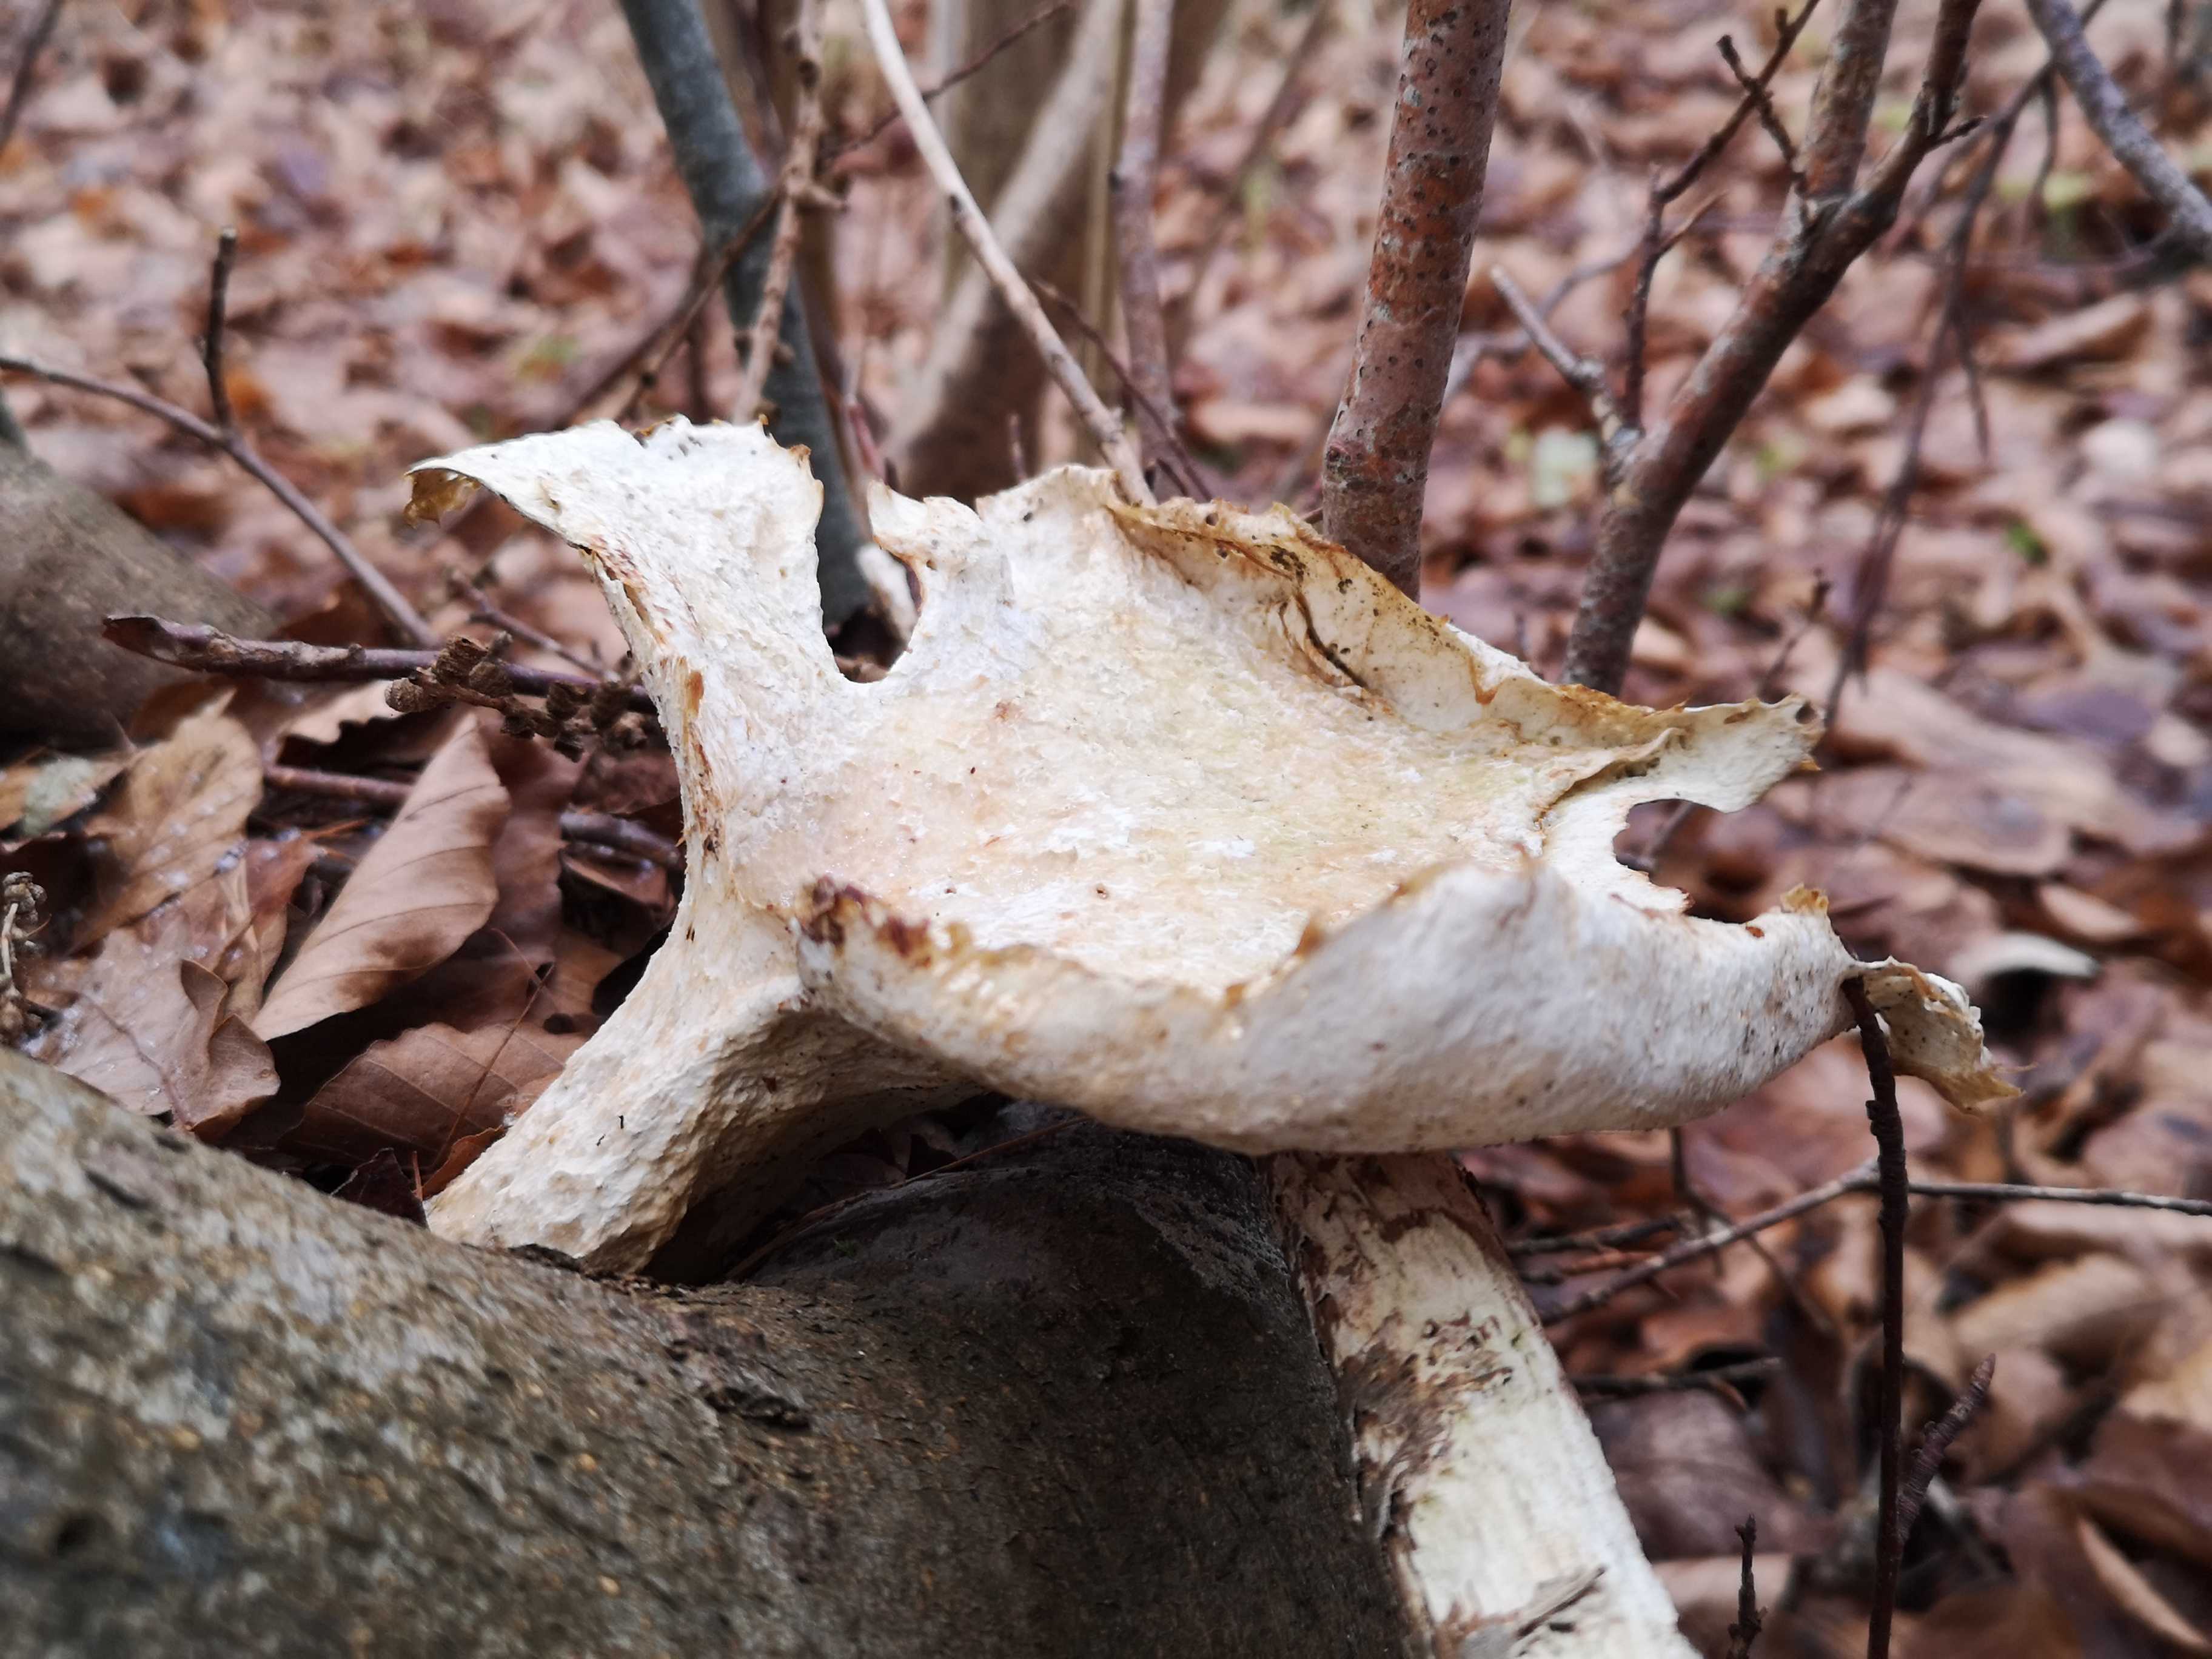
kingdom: Fungi
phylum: Basidiomycota
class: Agaricomycetes
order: Polyporales
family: Polyporaceae
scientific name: Polyporaceae
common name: poresvampfamilien
